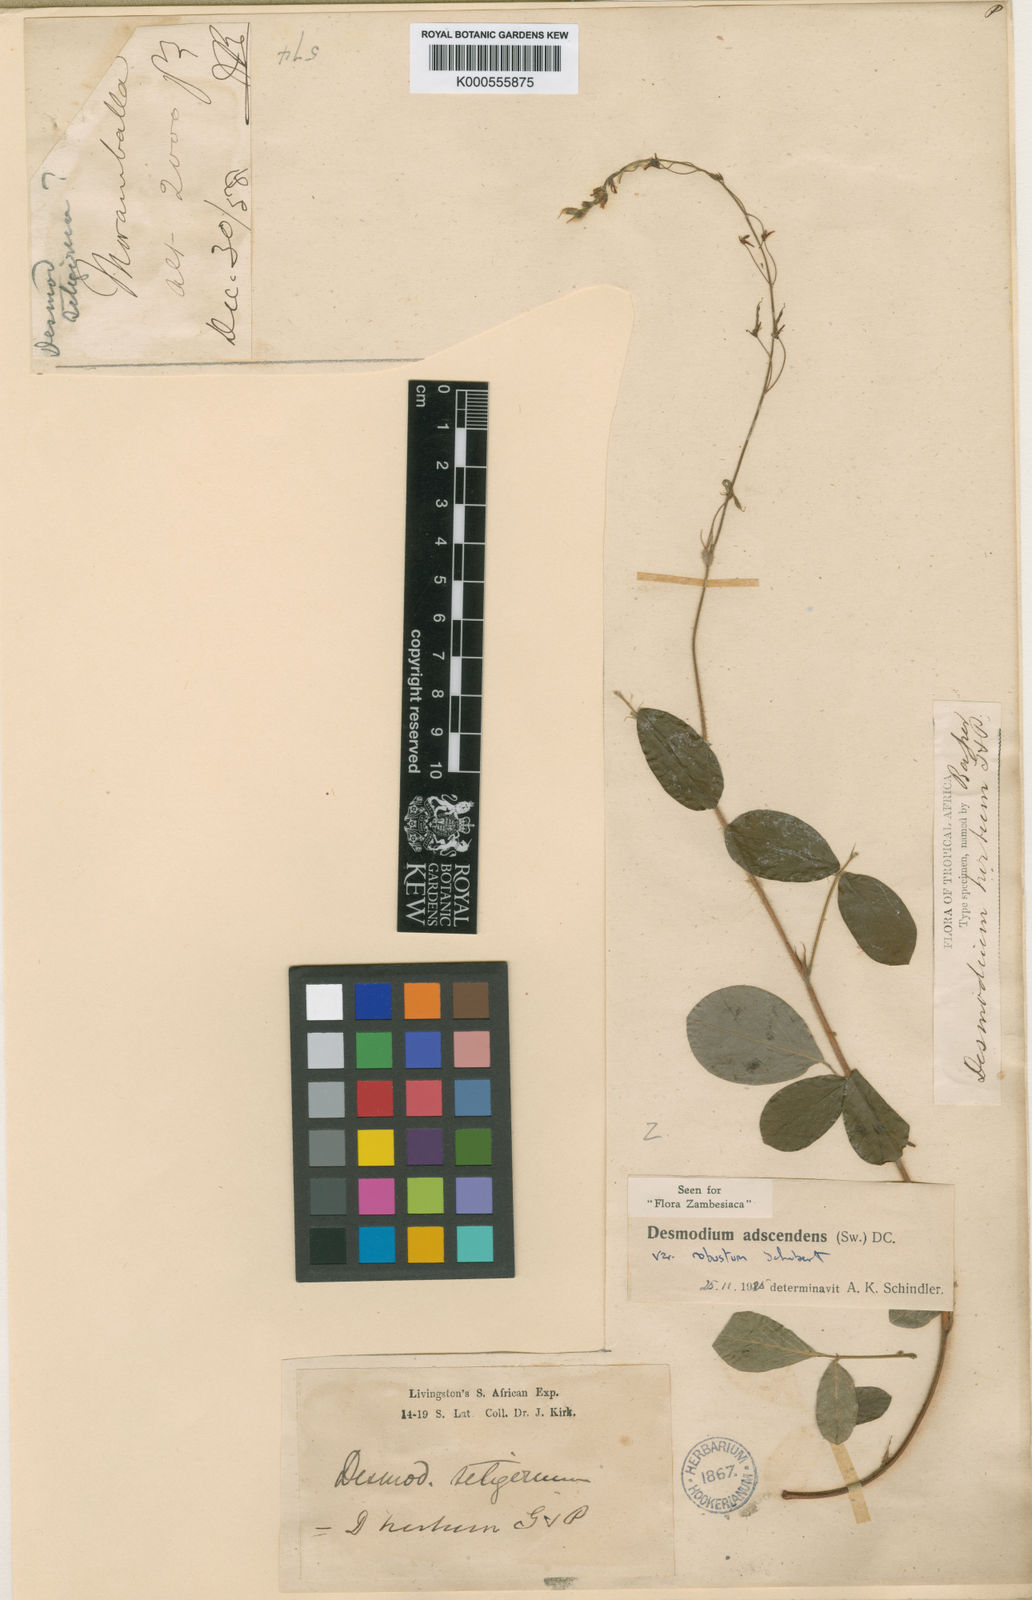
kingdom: Plantae
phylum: Tracheophyta
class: Magnoliopsida
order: Fabales
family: Fabaceae
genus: Grona
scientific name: Grona adscendens
